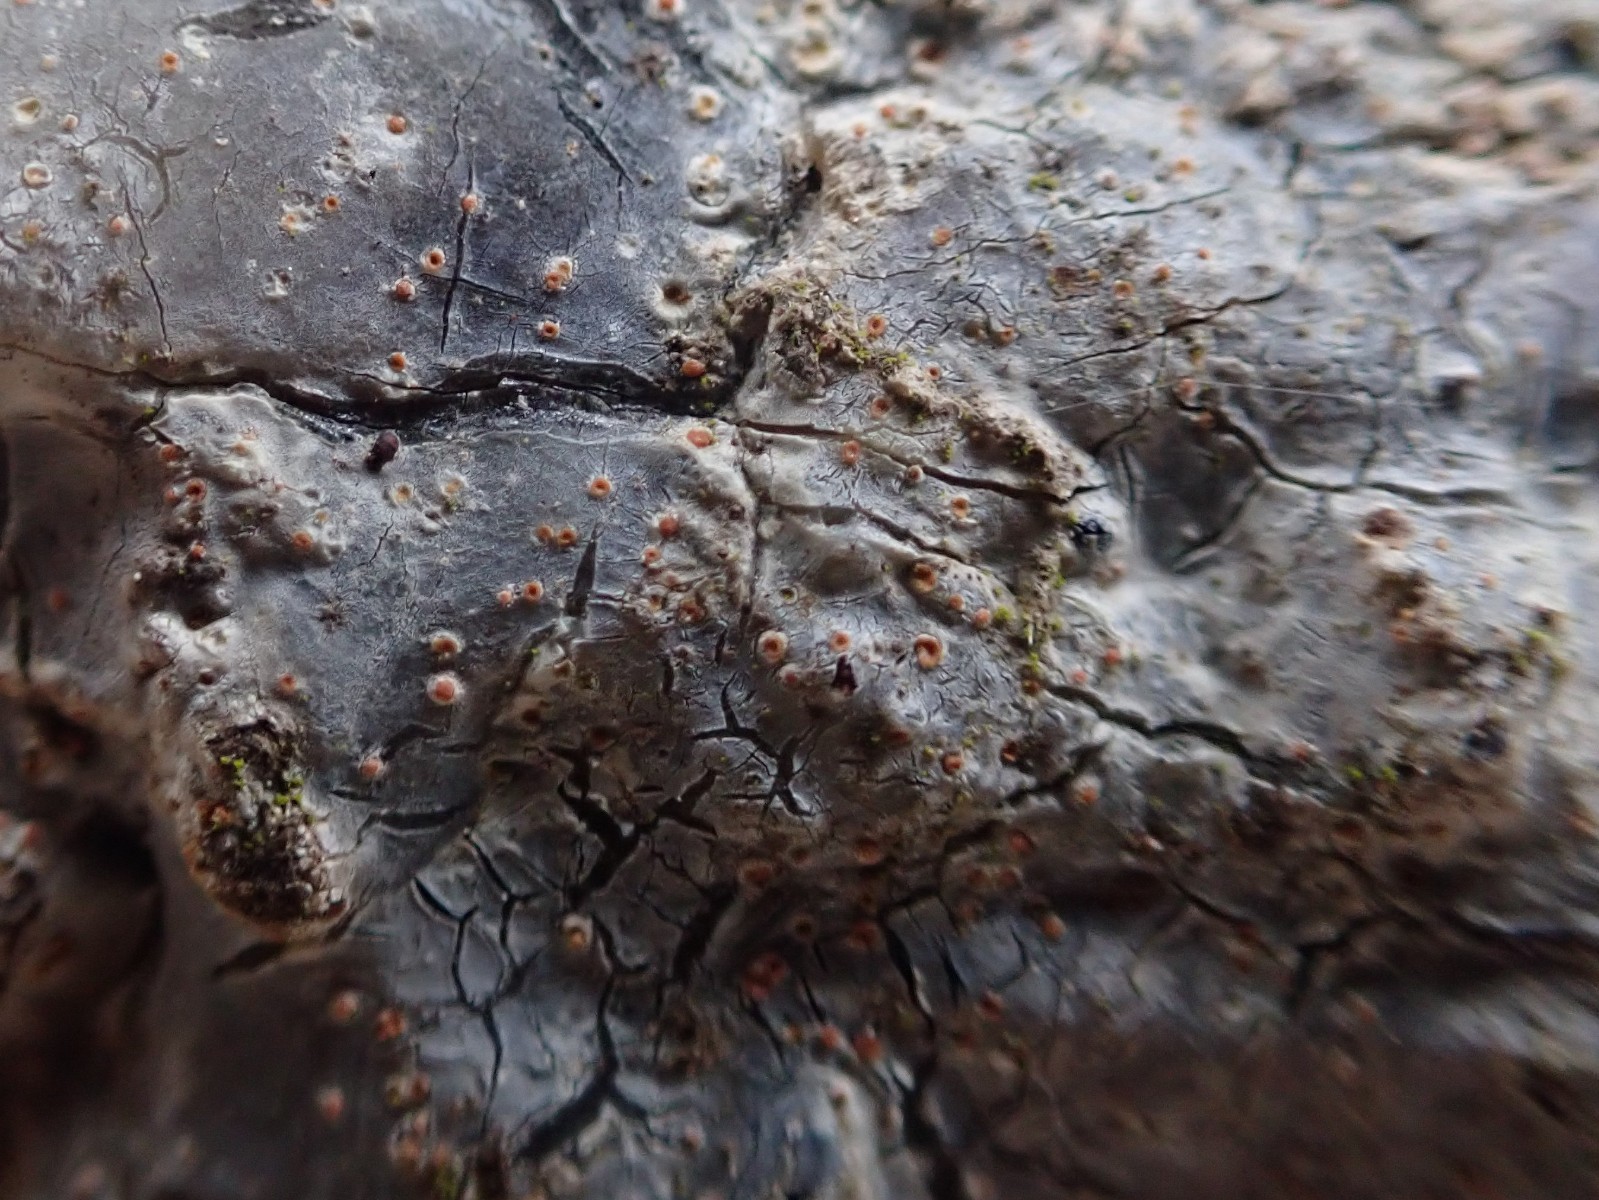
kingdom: Fungi
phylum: Ascomycota
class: Sareomycetes
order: Sareales
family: Sareaceae
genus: Sarea
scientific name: Sarea resinae
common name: orangegul harpiksskive
